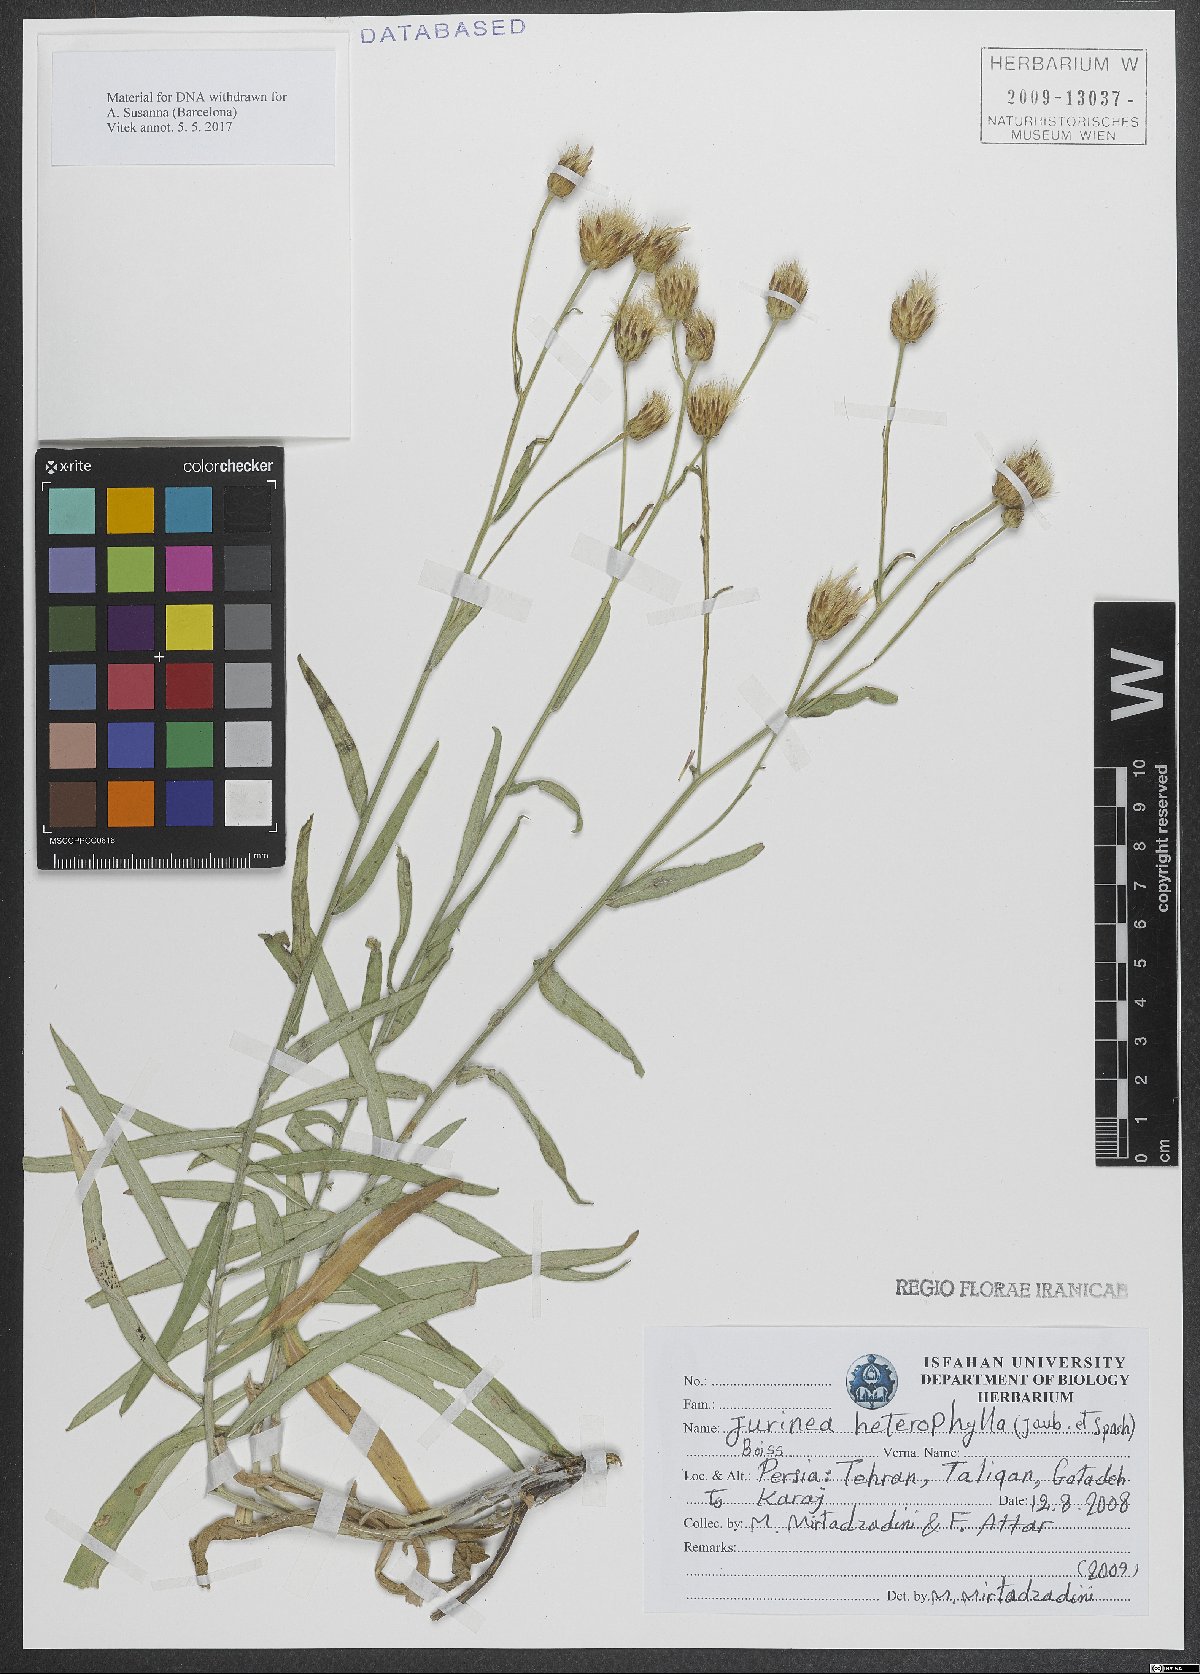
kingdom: Plantae
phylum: Tracheophyta
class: Magnoliopsida
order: Asterales
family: Asteraceae
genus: Jurinea
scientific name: Jurinea heterophylla
